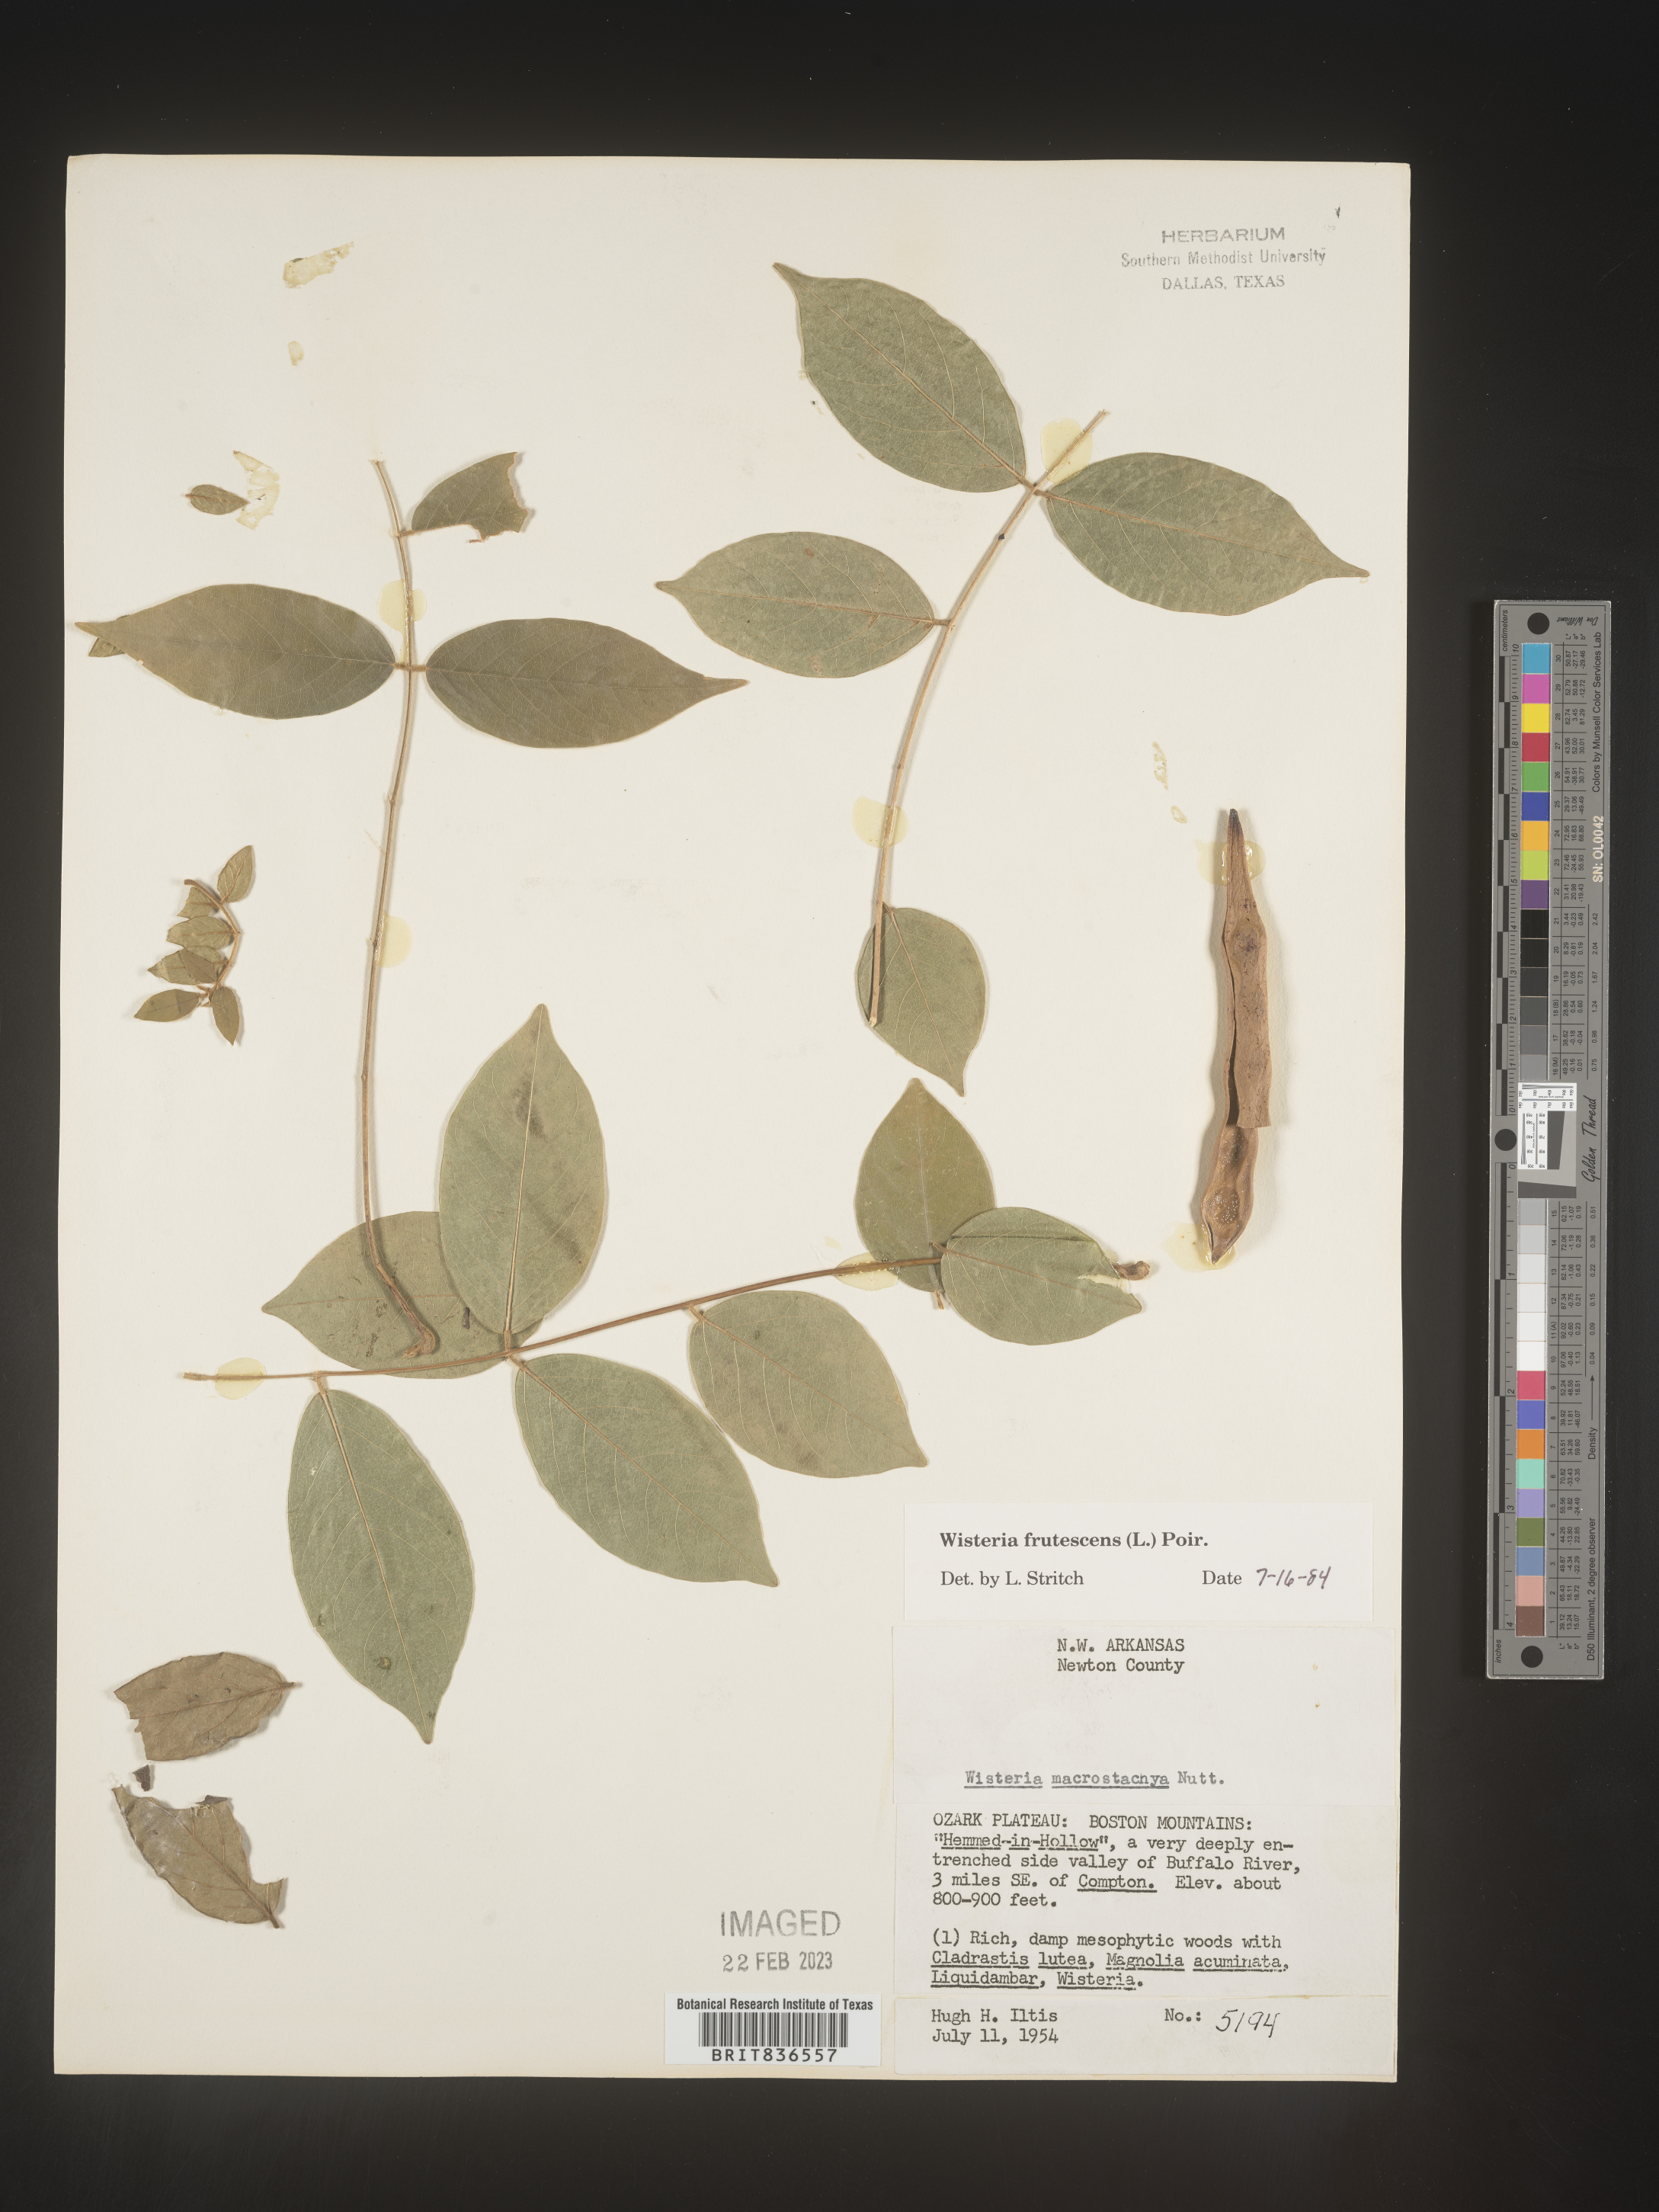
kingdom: Plantae
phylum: Tracheophyta
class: Magnoliopsida
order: Fabales
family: Fabaceae
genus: Wisteria
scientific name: Wisteria
